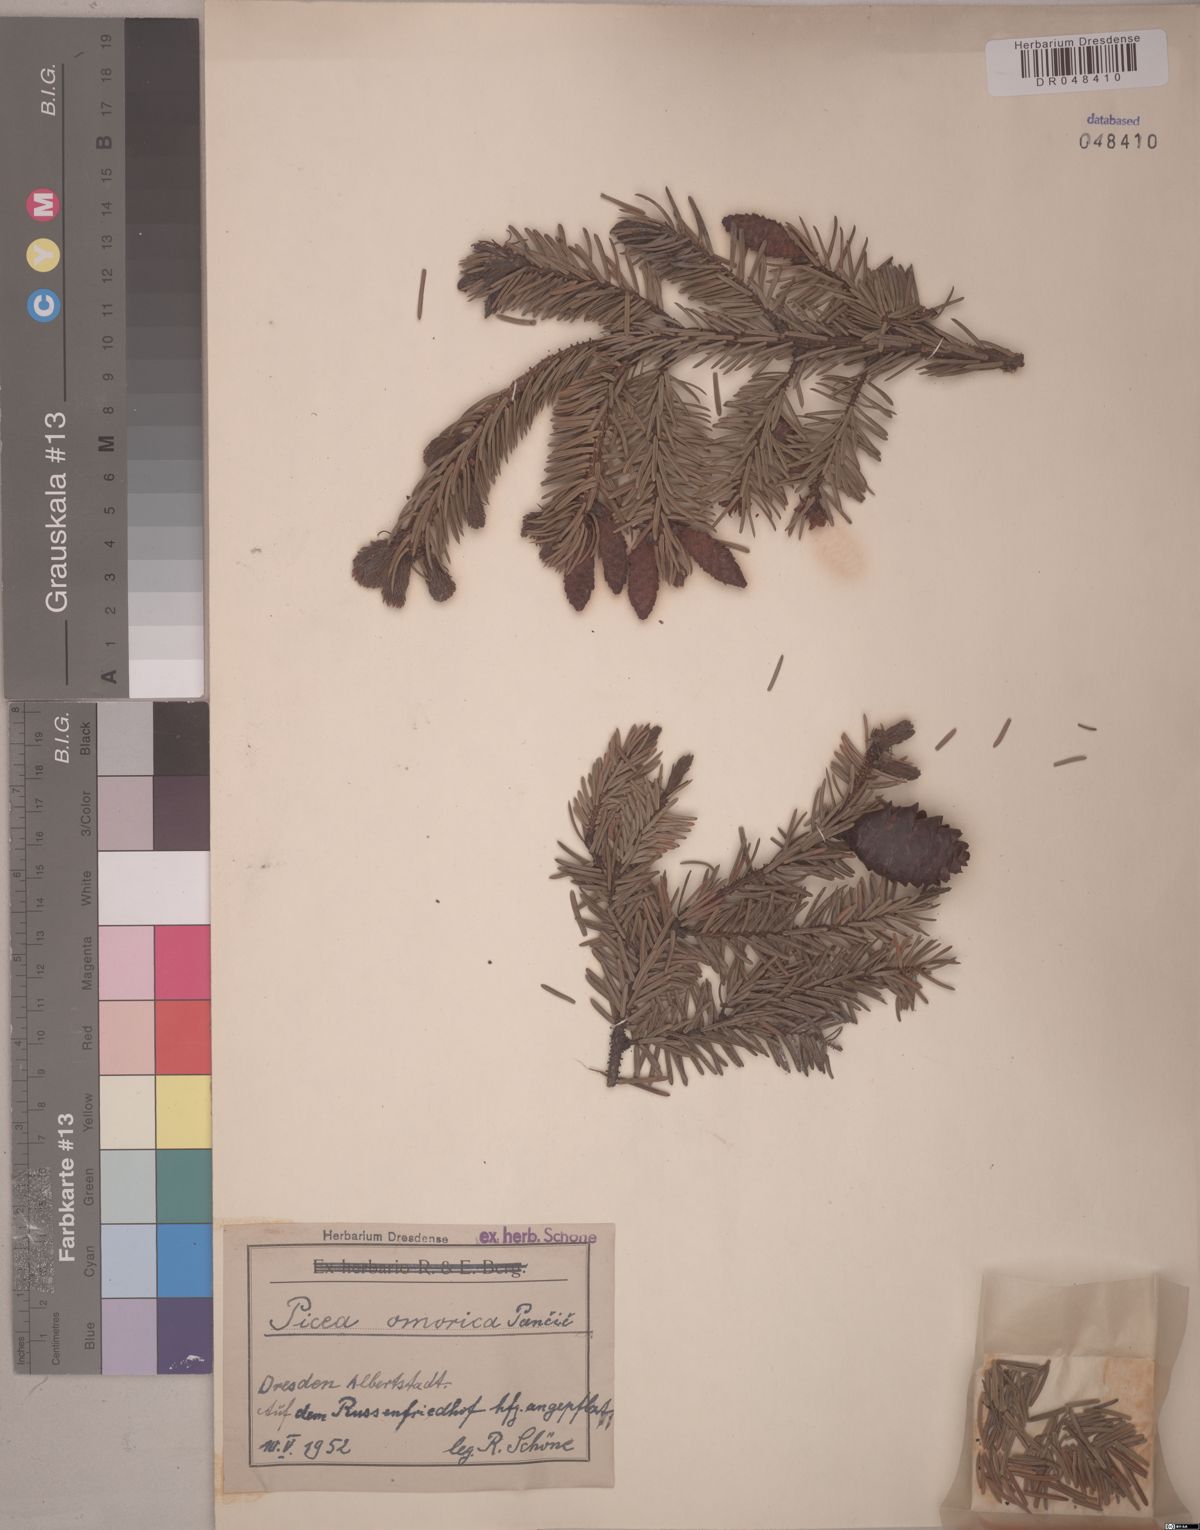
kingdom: Plantae
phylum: Tracheophyta
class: Pinopsida
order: Pinales
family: Pinaceae
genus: Picea
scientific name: Picea omorika
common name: Serbian spruce
